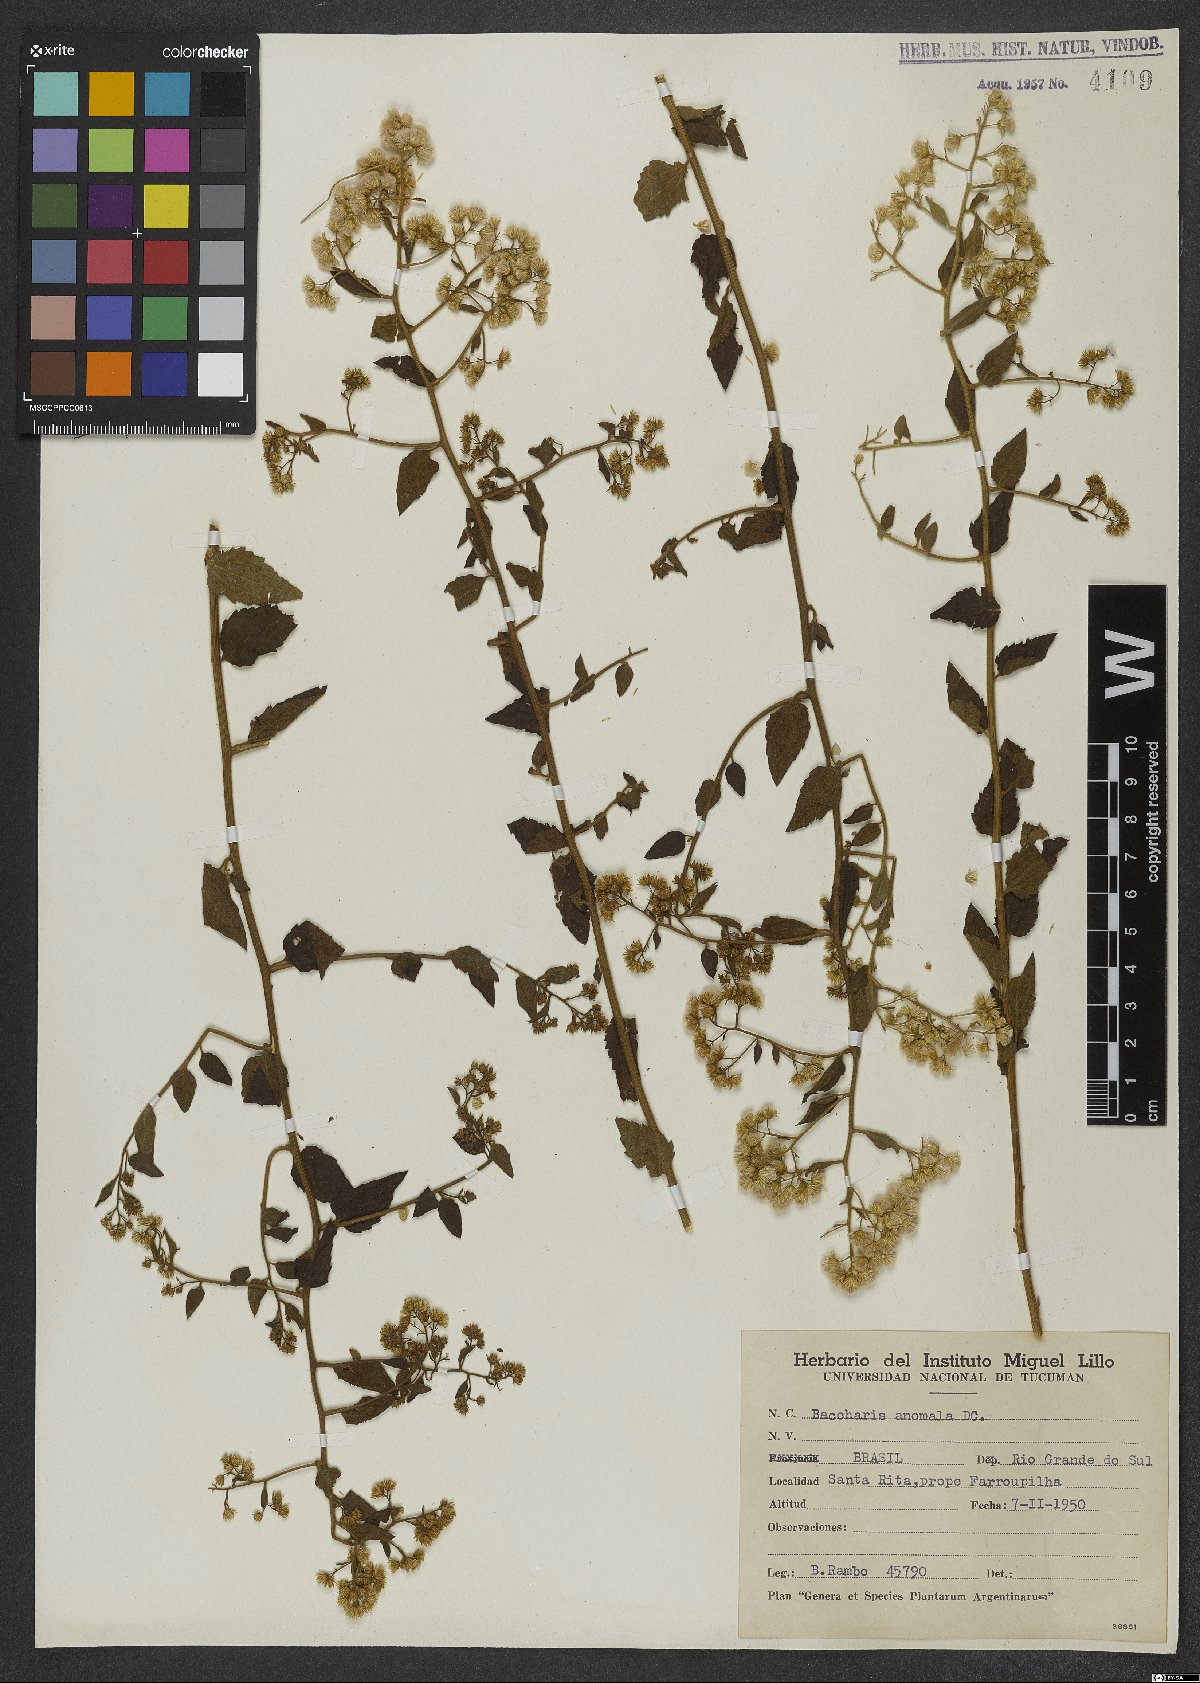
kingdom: Plantae
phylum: Tracheophyta
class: Magnoliopsida
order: Asterales
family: Asteraceae
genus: Baccharis
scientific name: Baccharis anomala
